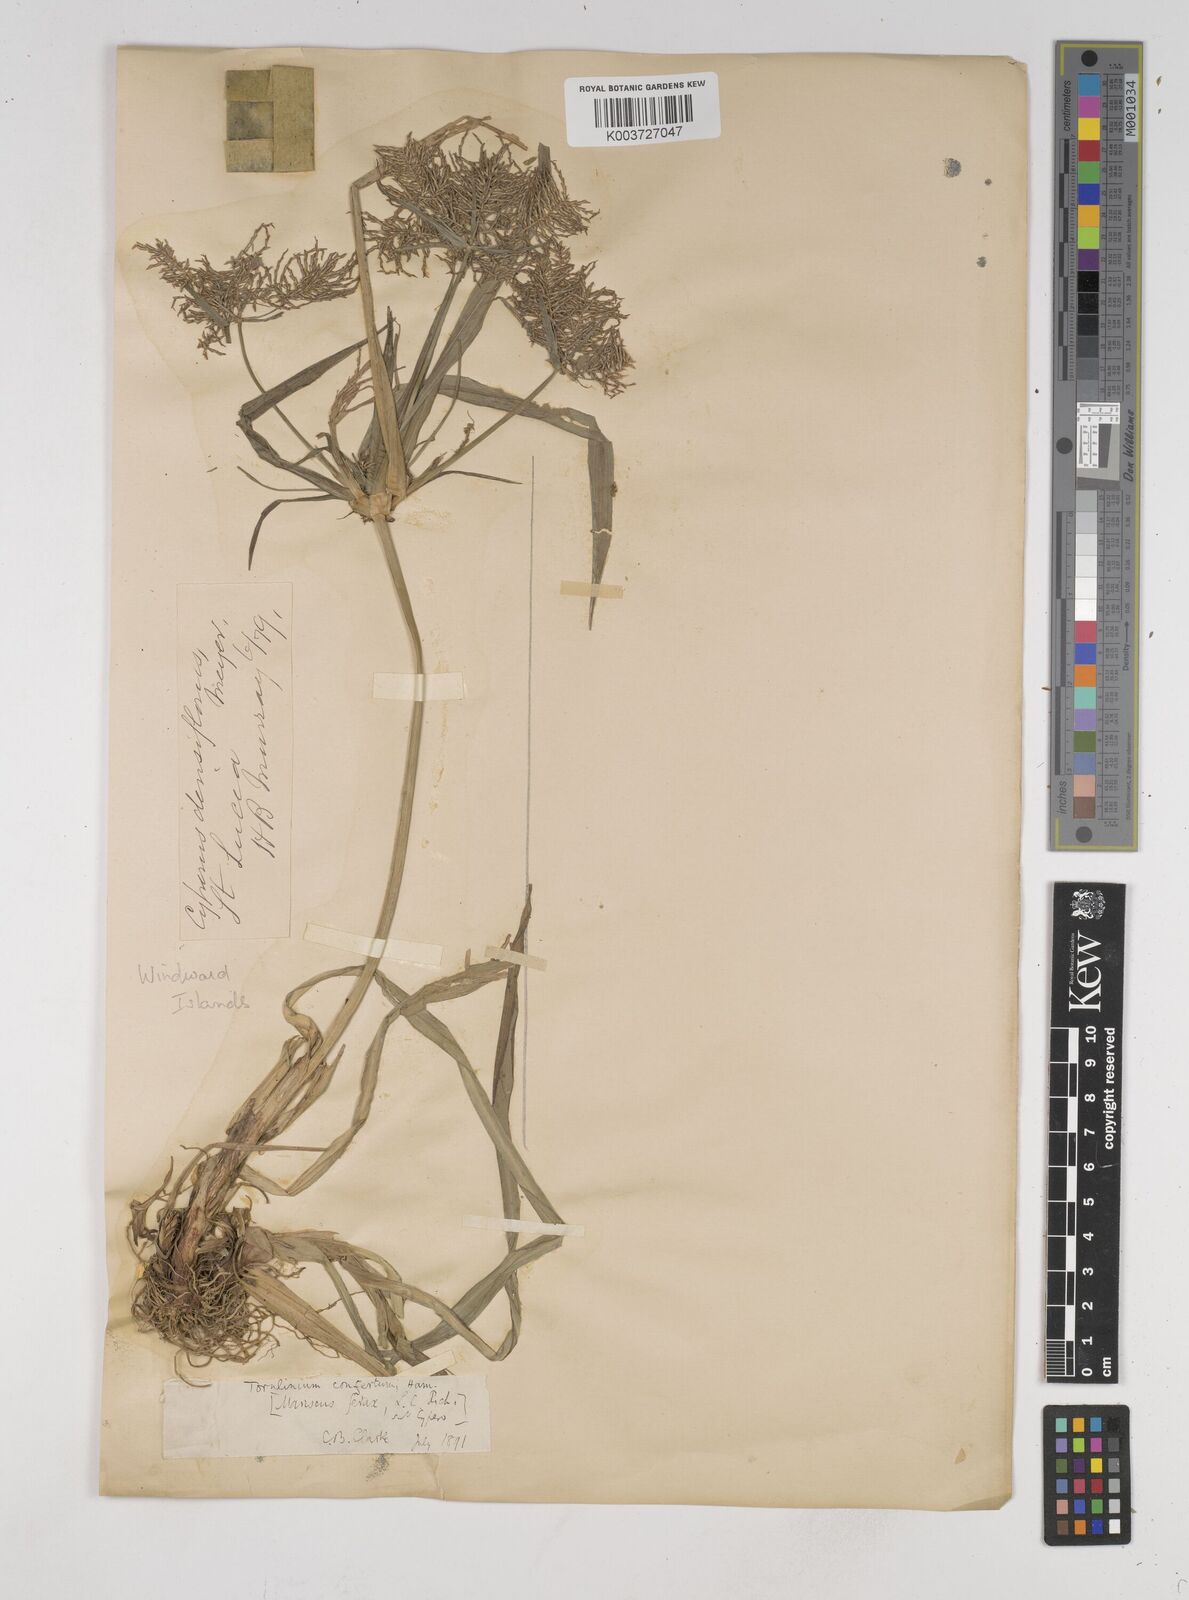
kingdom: Plantae
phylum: Tracheophyta
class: Liliopsida
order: Poales
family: Cyperaceae
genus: Cyperus
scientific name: Cyperus odoratus
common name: Fragrant flatsedge
